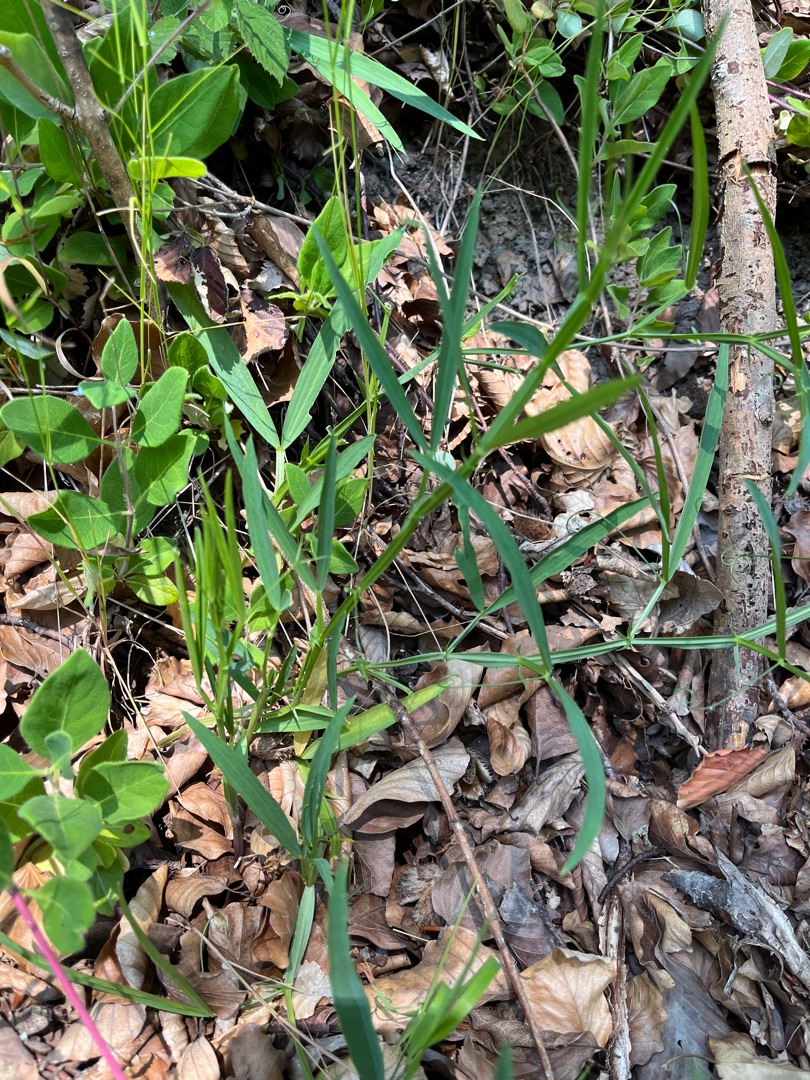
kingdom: Plantae
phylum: Tracheophyta
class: Magnoliopsida
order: Fabales
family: Fabaceae
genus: Lathyrus
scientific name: Lathyrus sylvestris
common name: Skov-fladbælg
